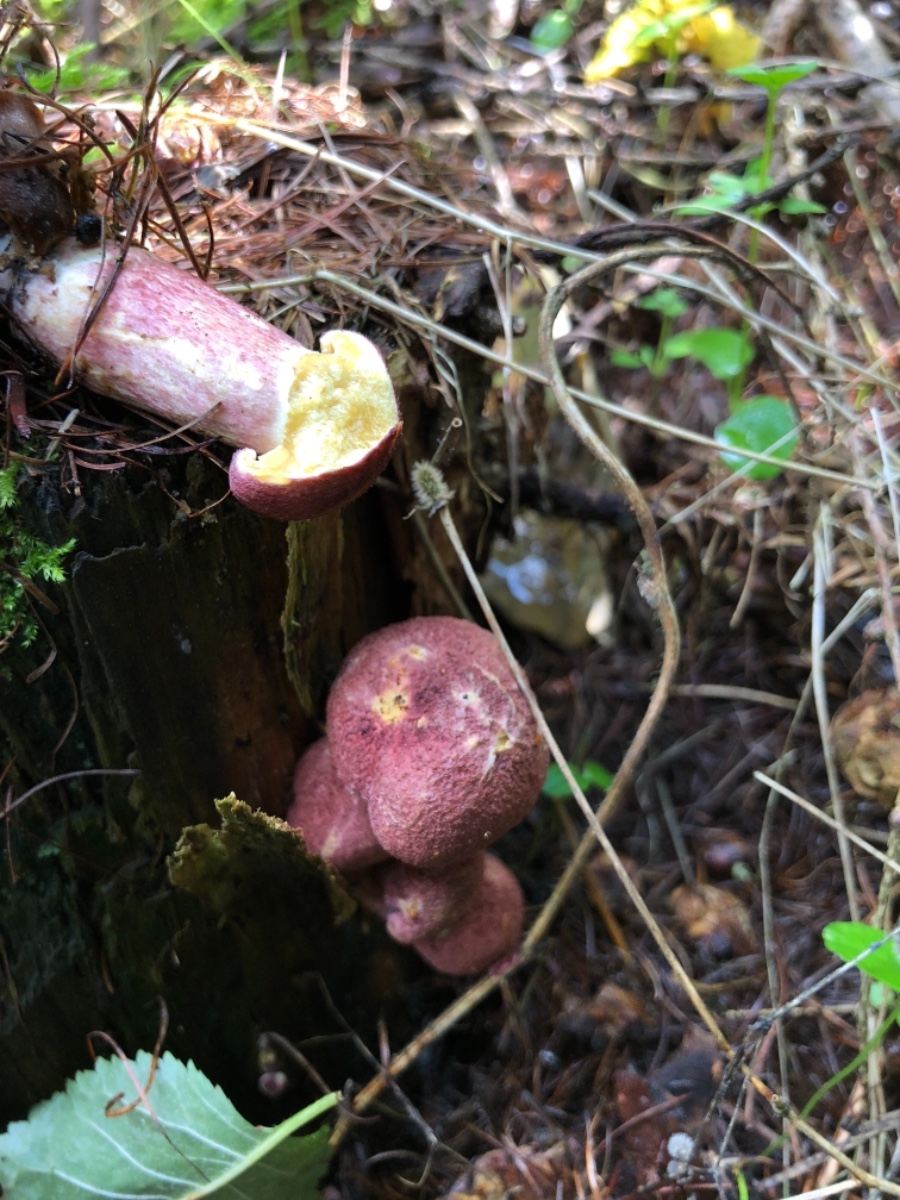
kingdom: Fungi
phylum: Basidiomycota
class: Agaricomycetes
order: Agaricales
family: Tricholomataceae
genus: Tricholomopsis
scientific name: Tricholomopsis rutilans
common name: purpur-væbnerhat
